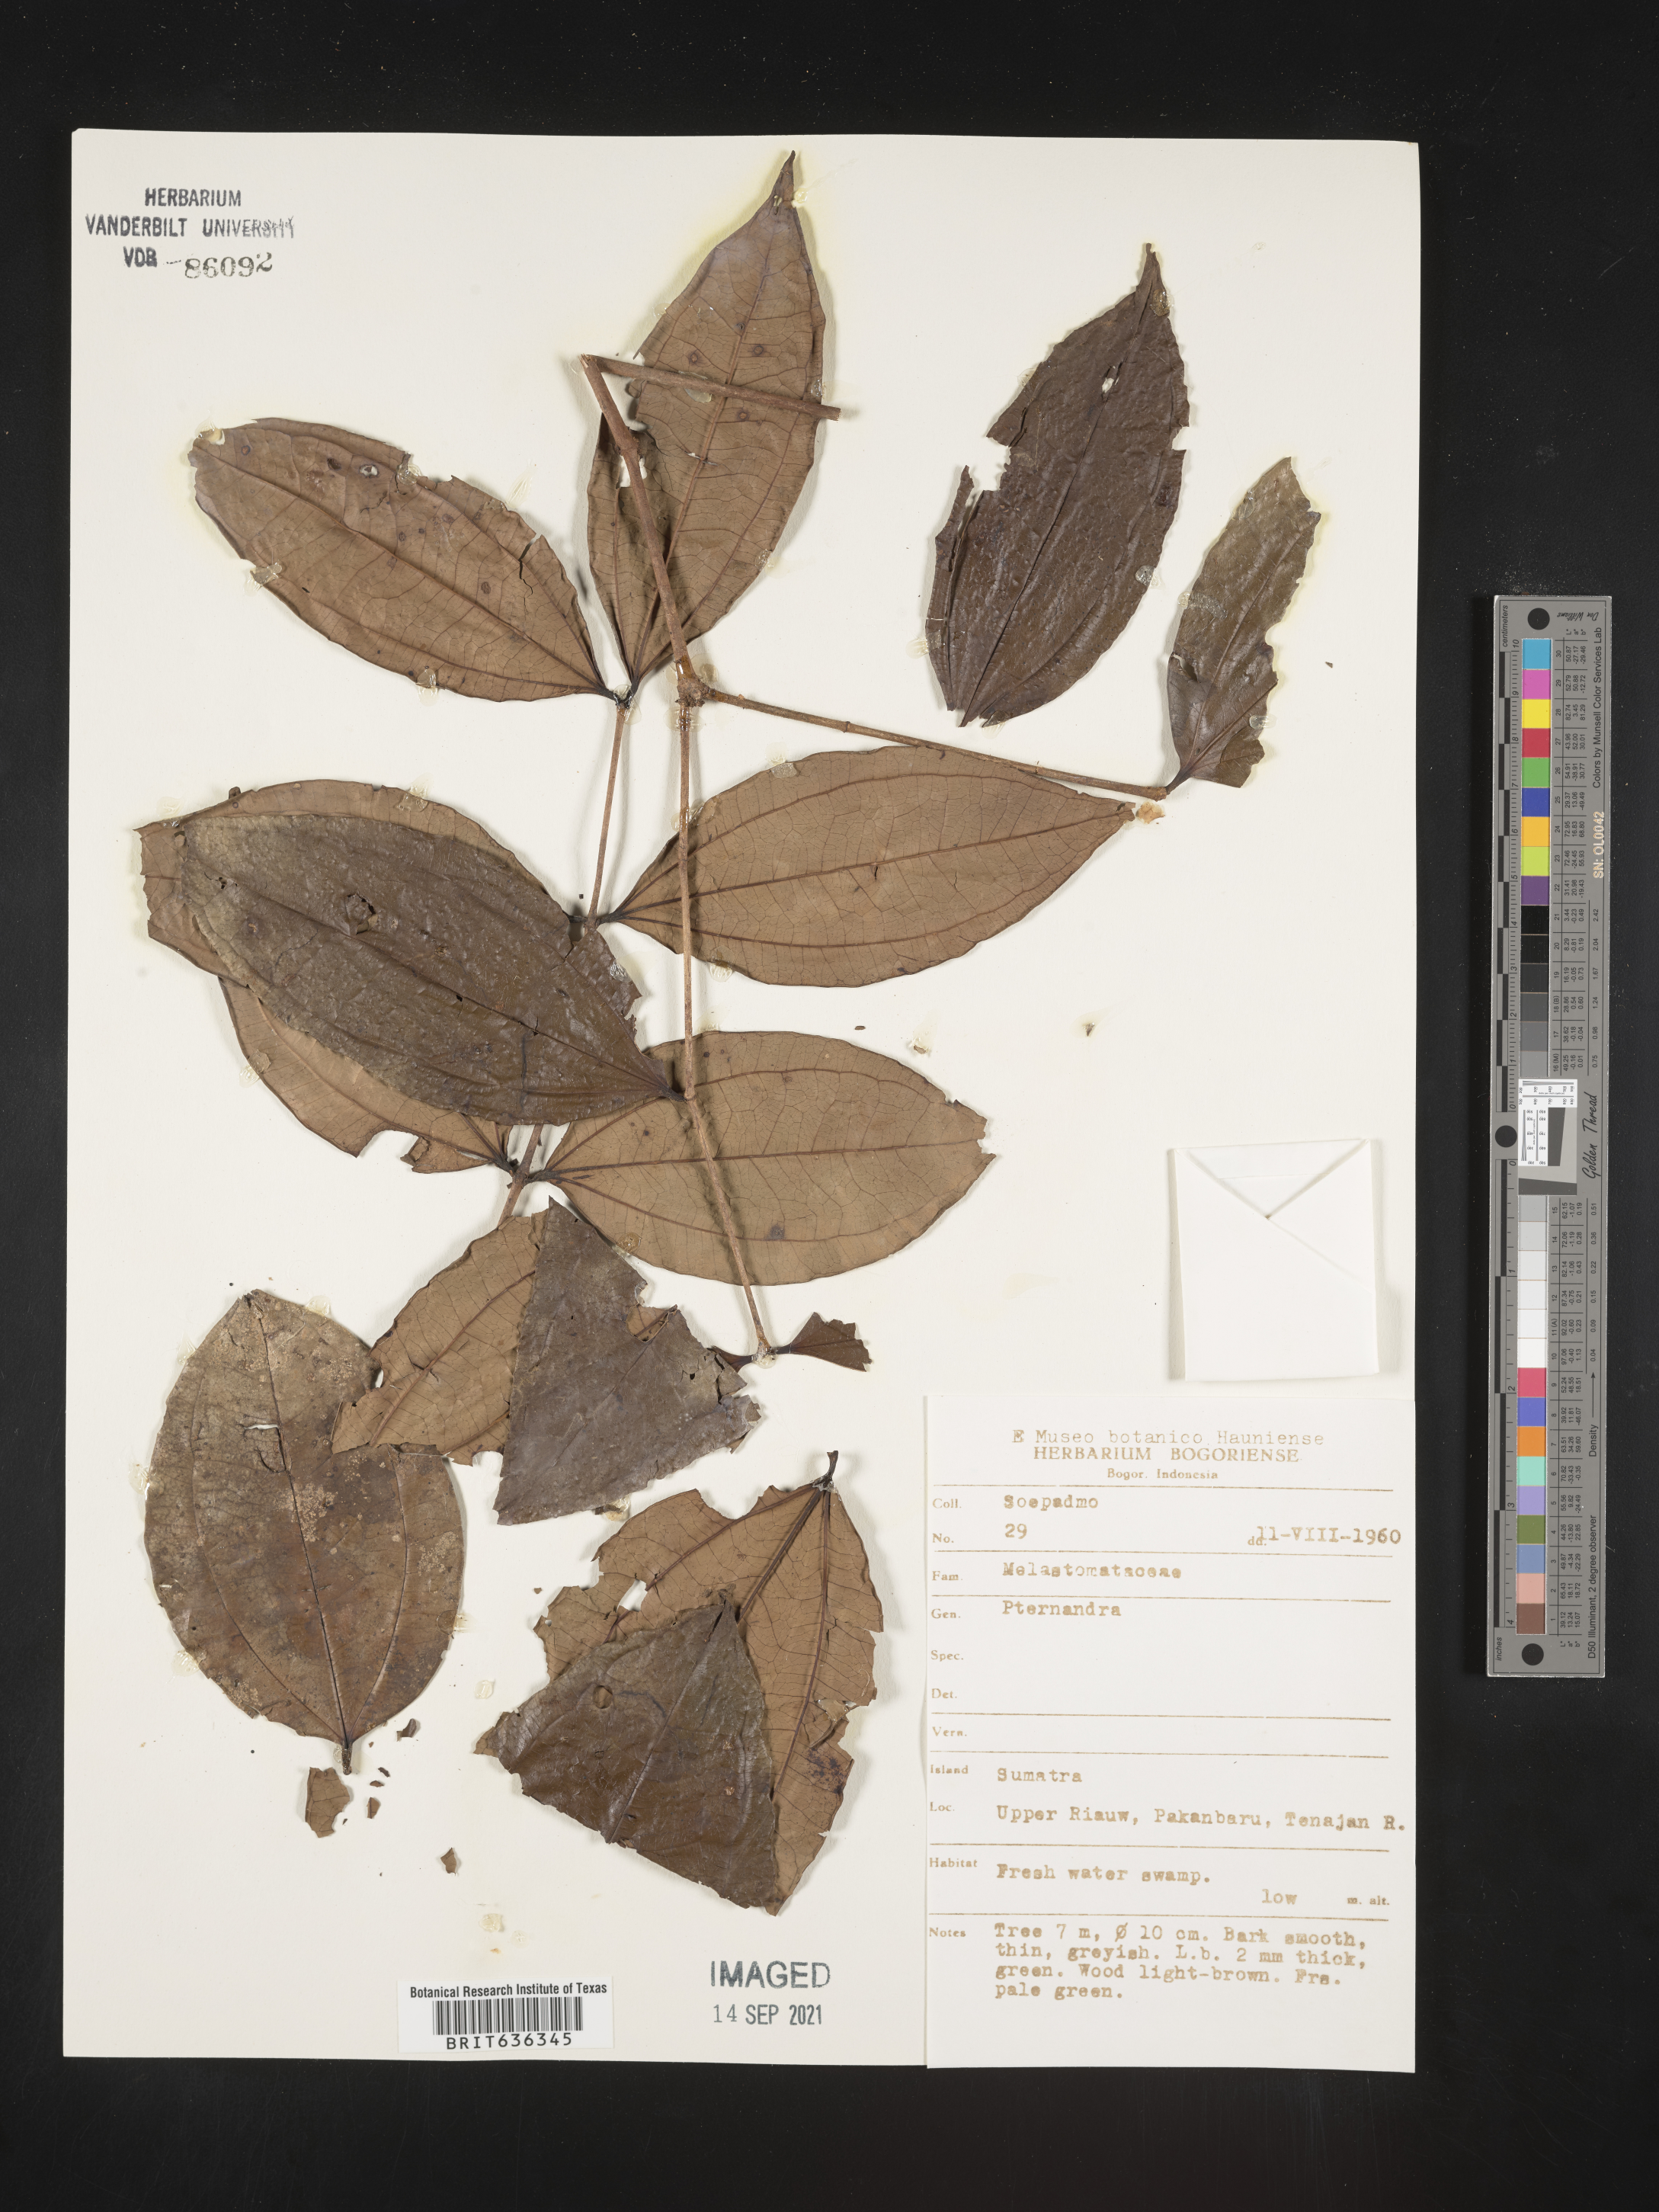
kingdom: Plantae
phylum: Tracheophyta
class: Magnoliopsida
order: Myrtales
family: Melastomataceae
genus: Pternandra
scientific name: Pternandra
